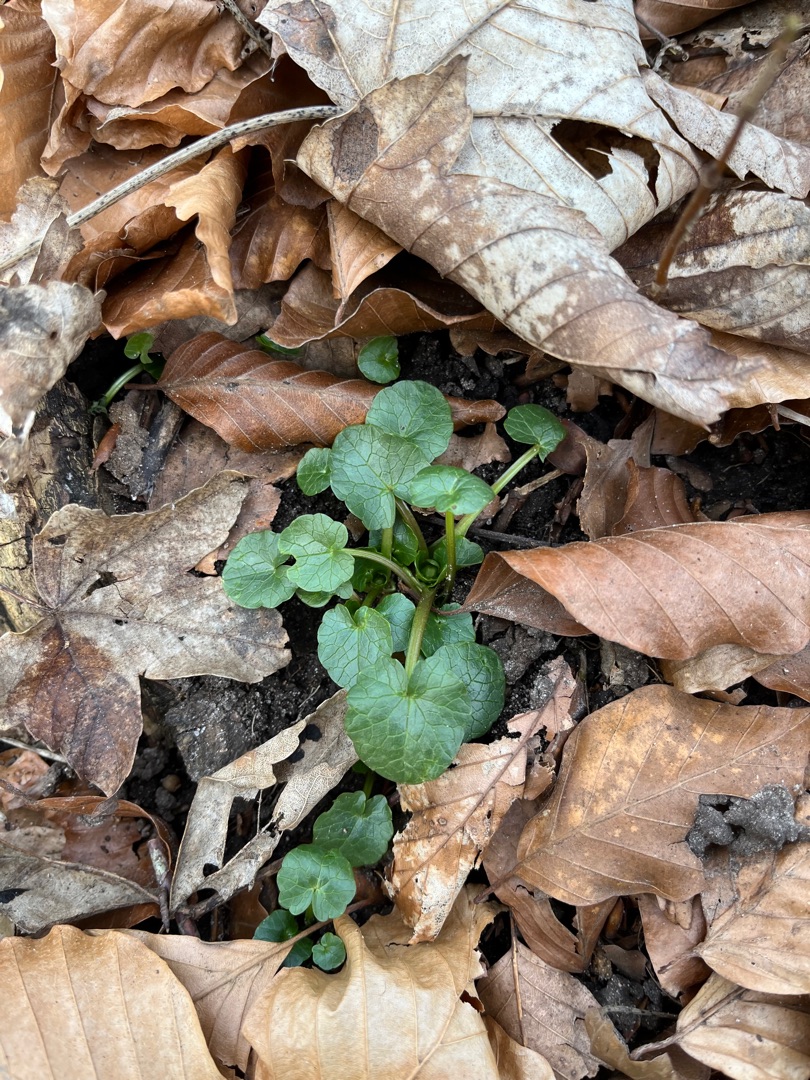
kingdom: Plantae
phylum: Tracheophyta
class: Magnoliopsida
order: Ranunculales
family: Ranunculaceae
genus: Ficaria
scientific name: Ficaria verna
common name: Vorterod
